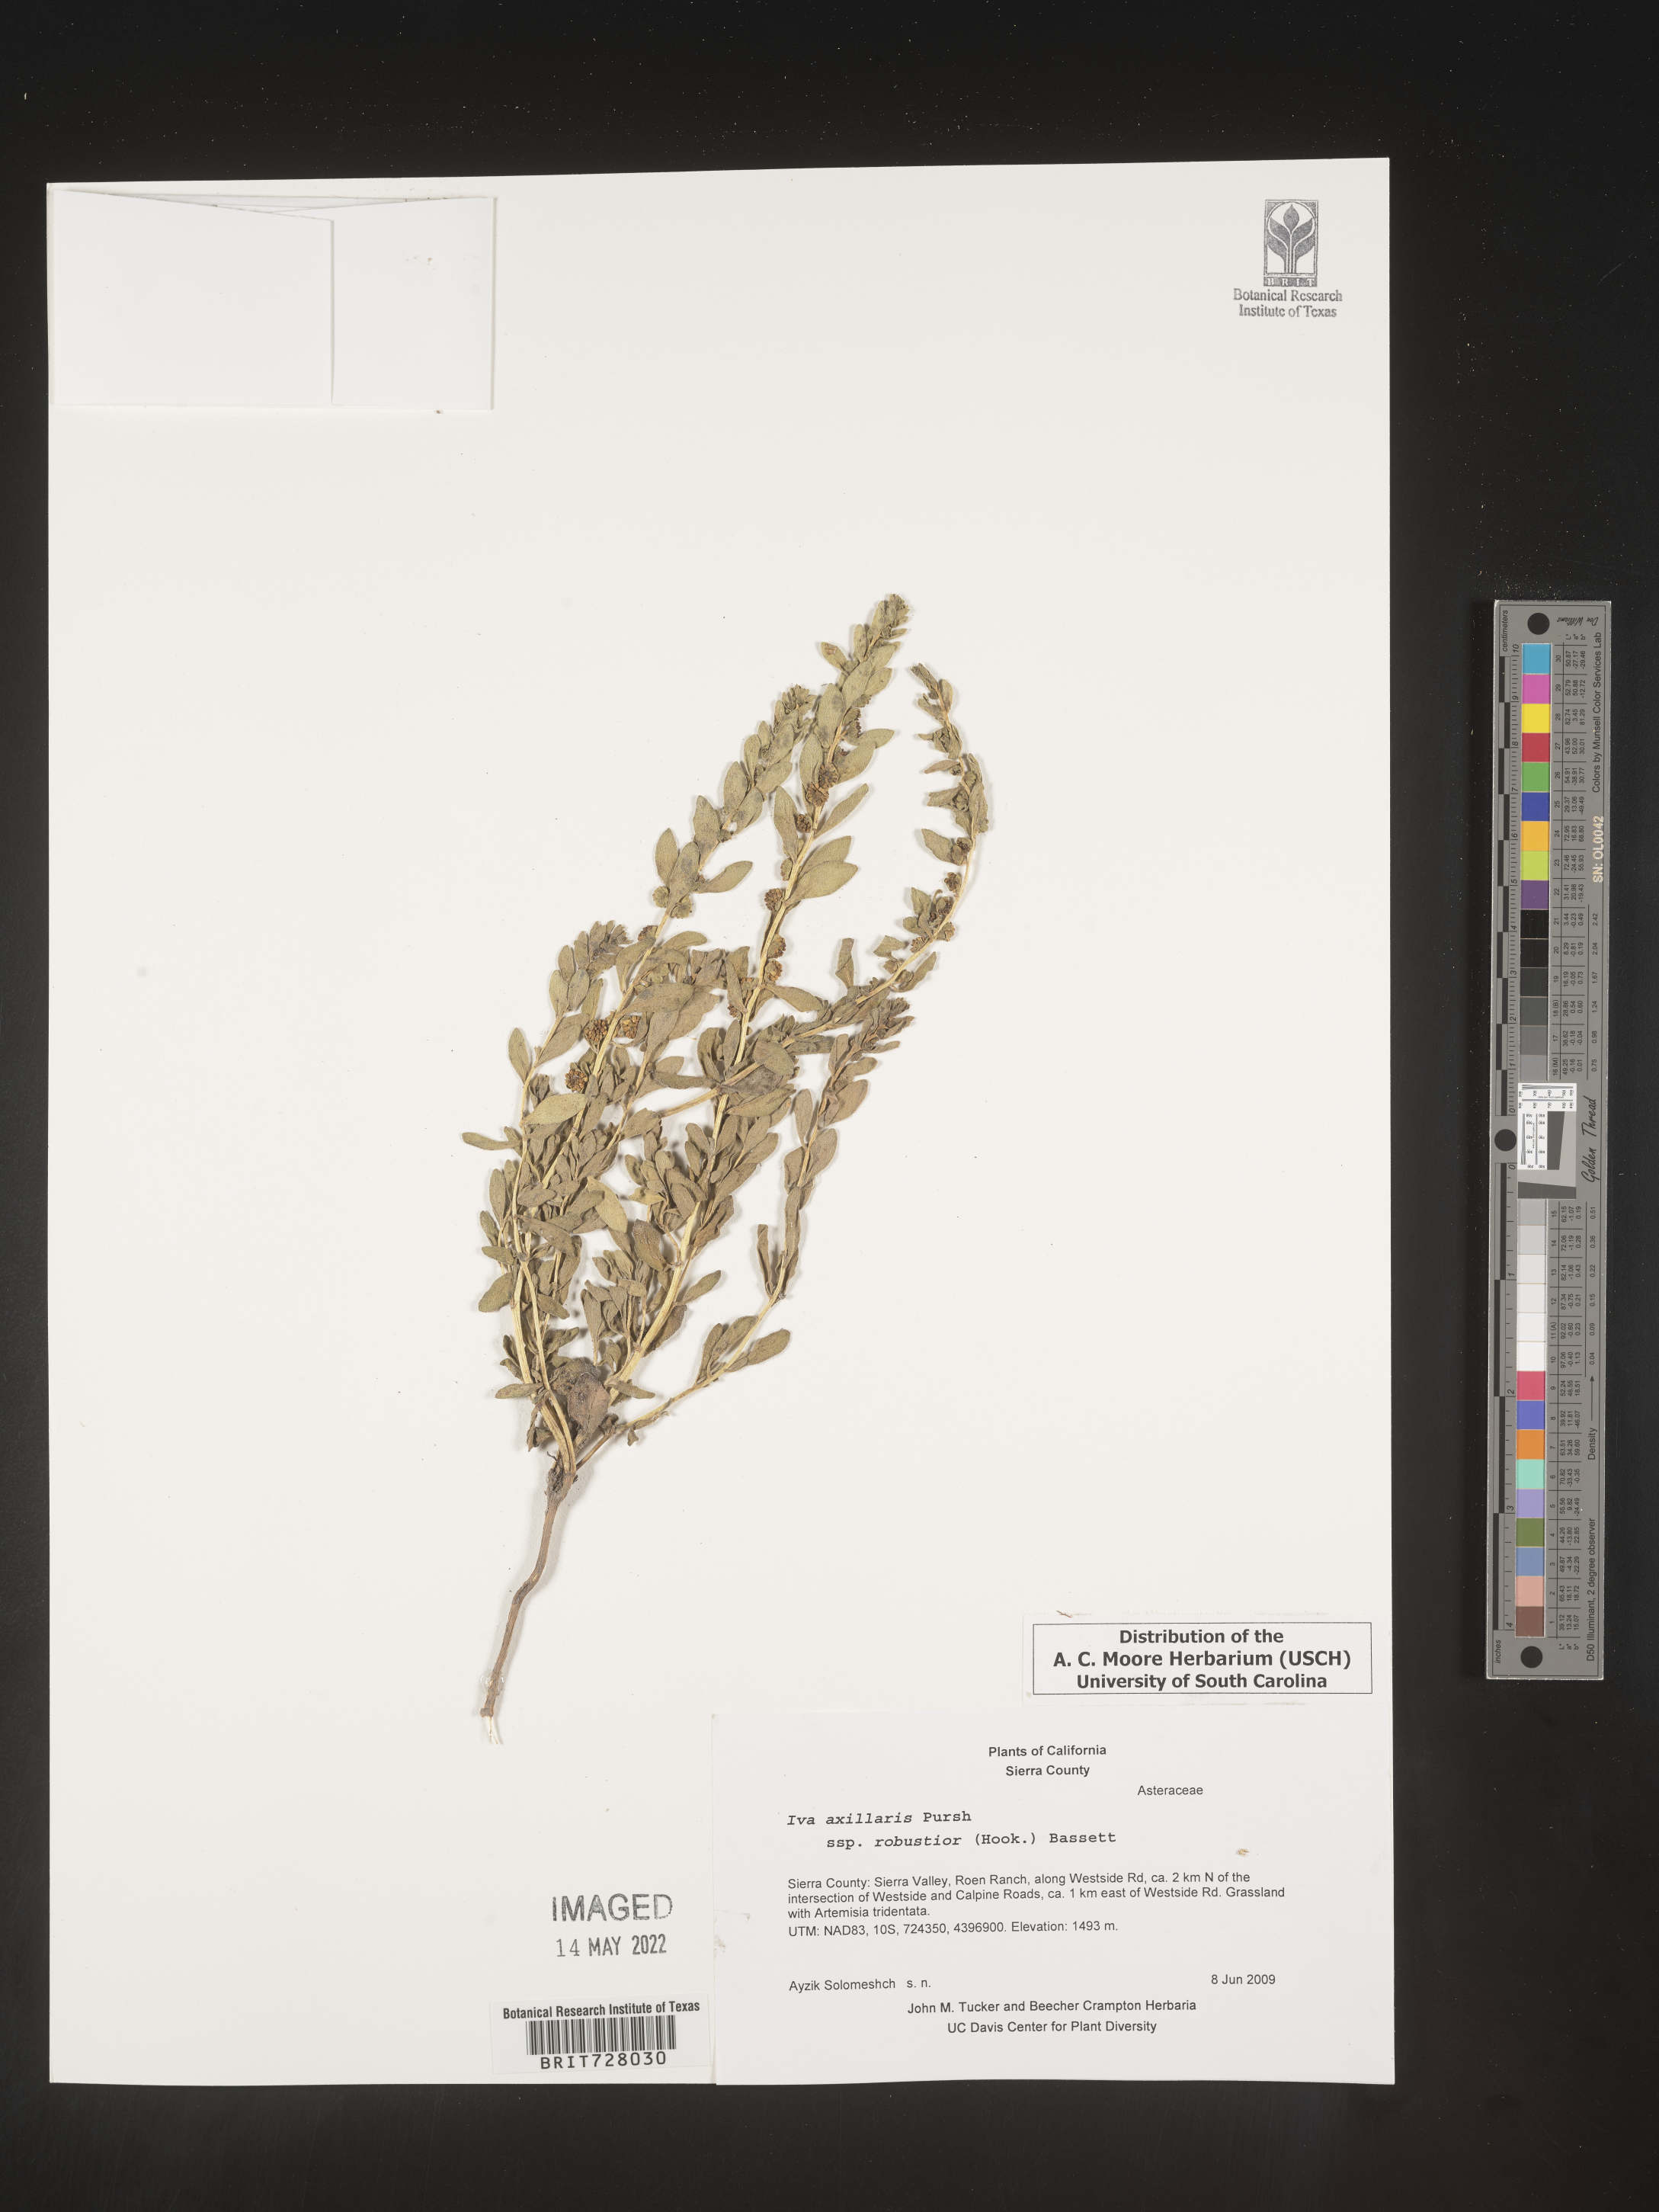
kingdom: Plantae
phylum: Tracheophyta
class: Magnoliopsida
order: Asterales
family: Asteraceae
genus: Iva
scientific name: Iva axillaris
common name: Poverty sumpweed
